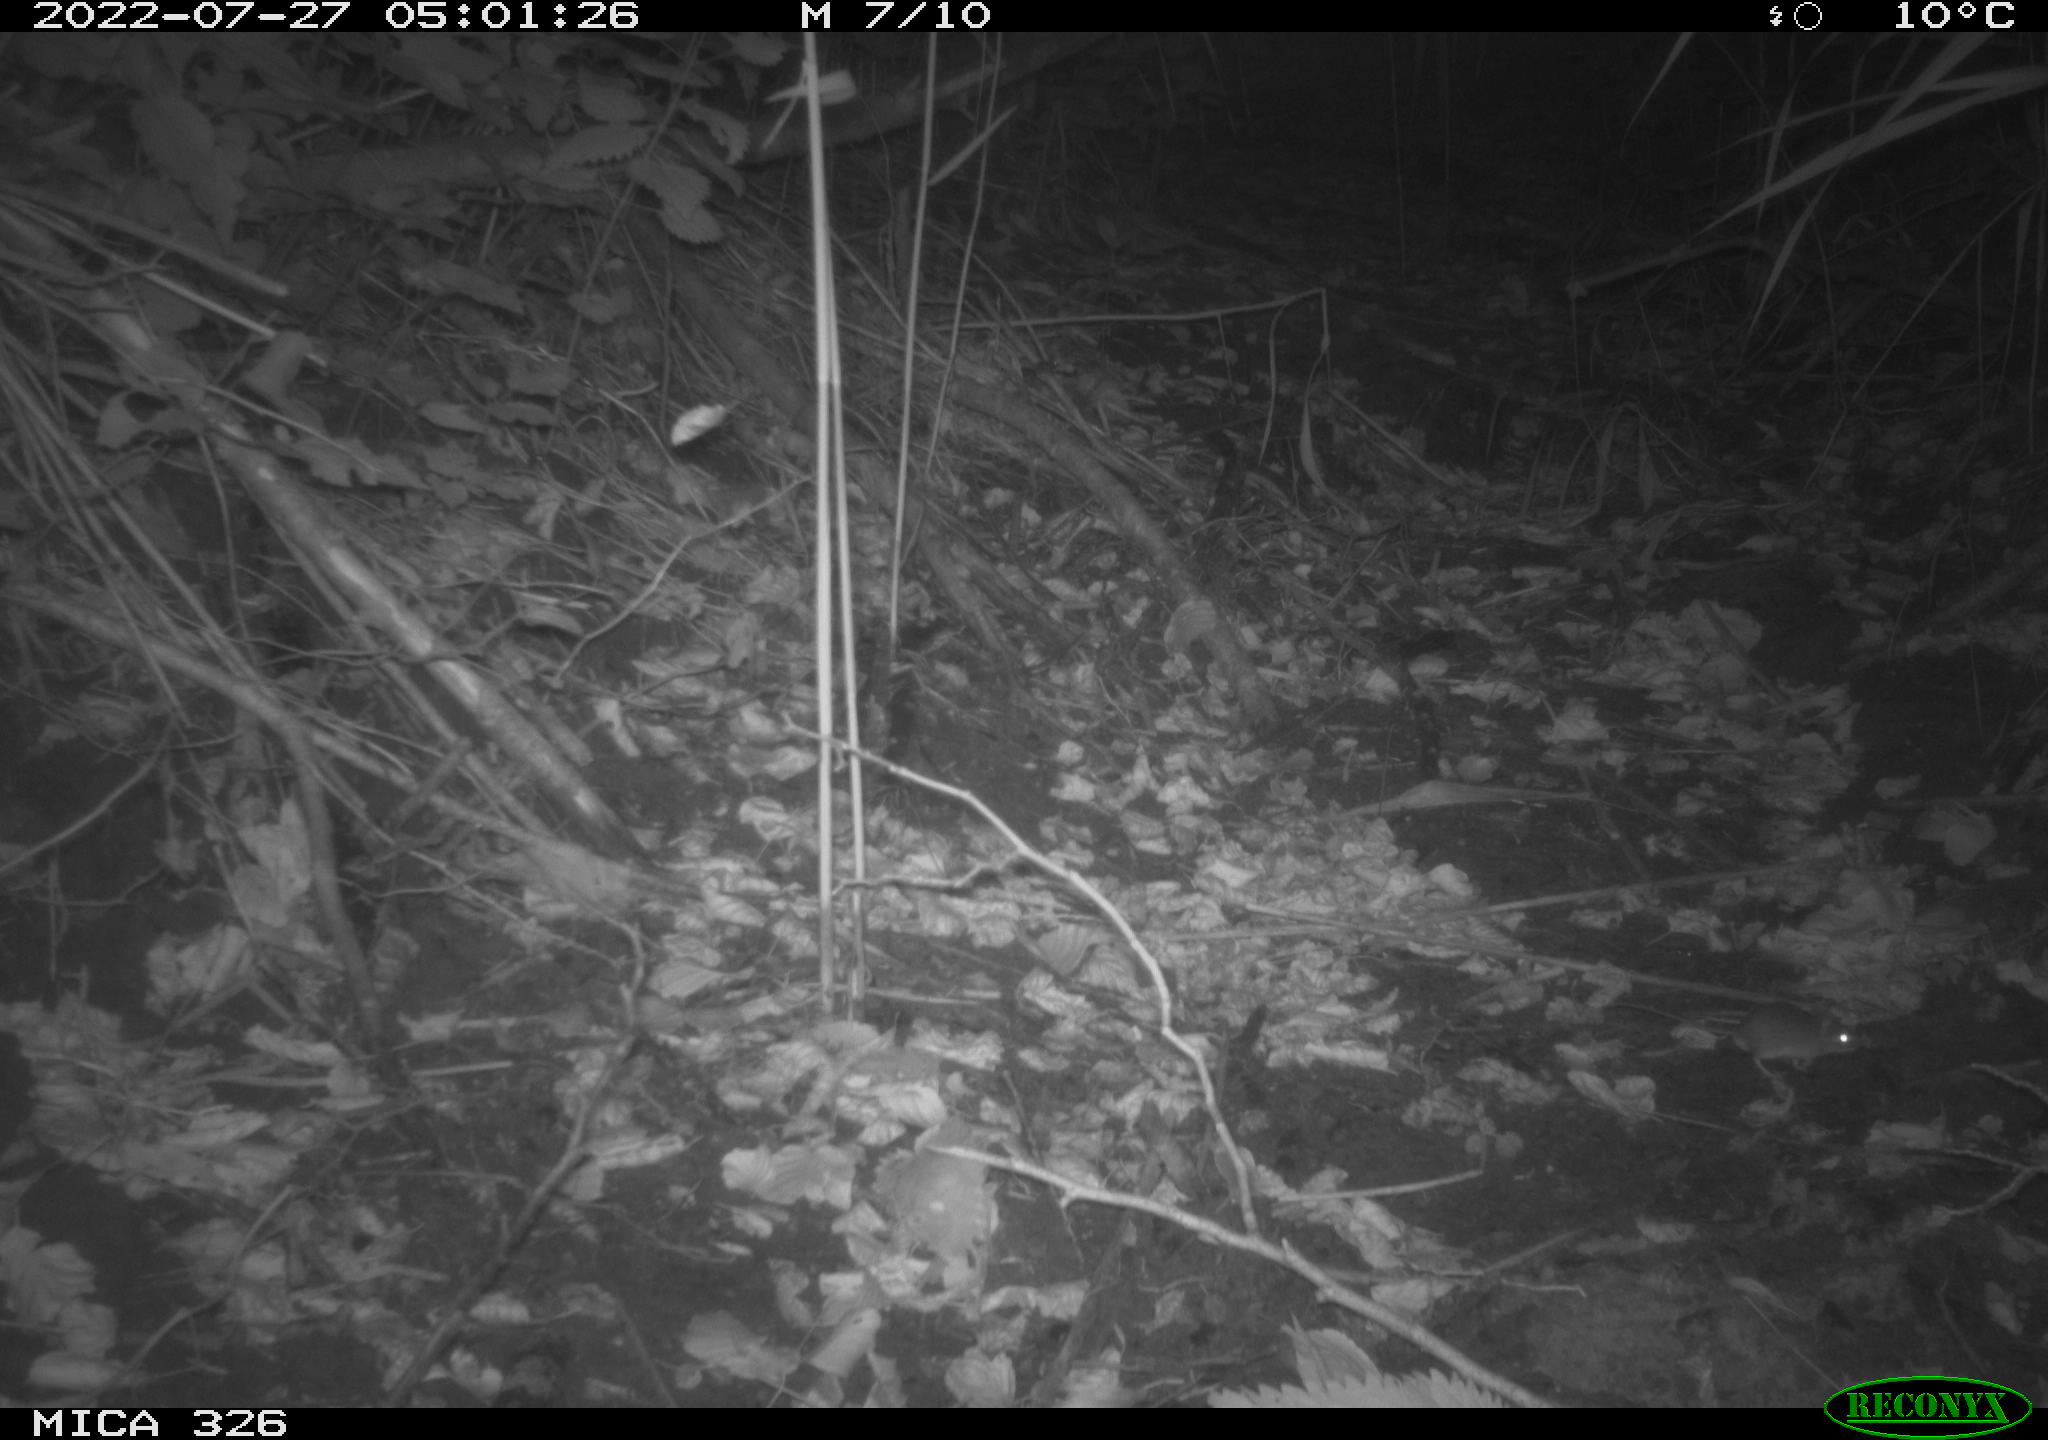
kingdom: Animalia
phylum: Chordata
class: Mammalia
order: Rodentia
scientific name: Rodentia
